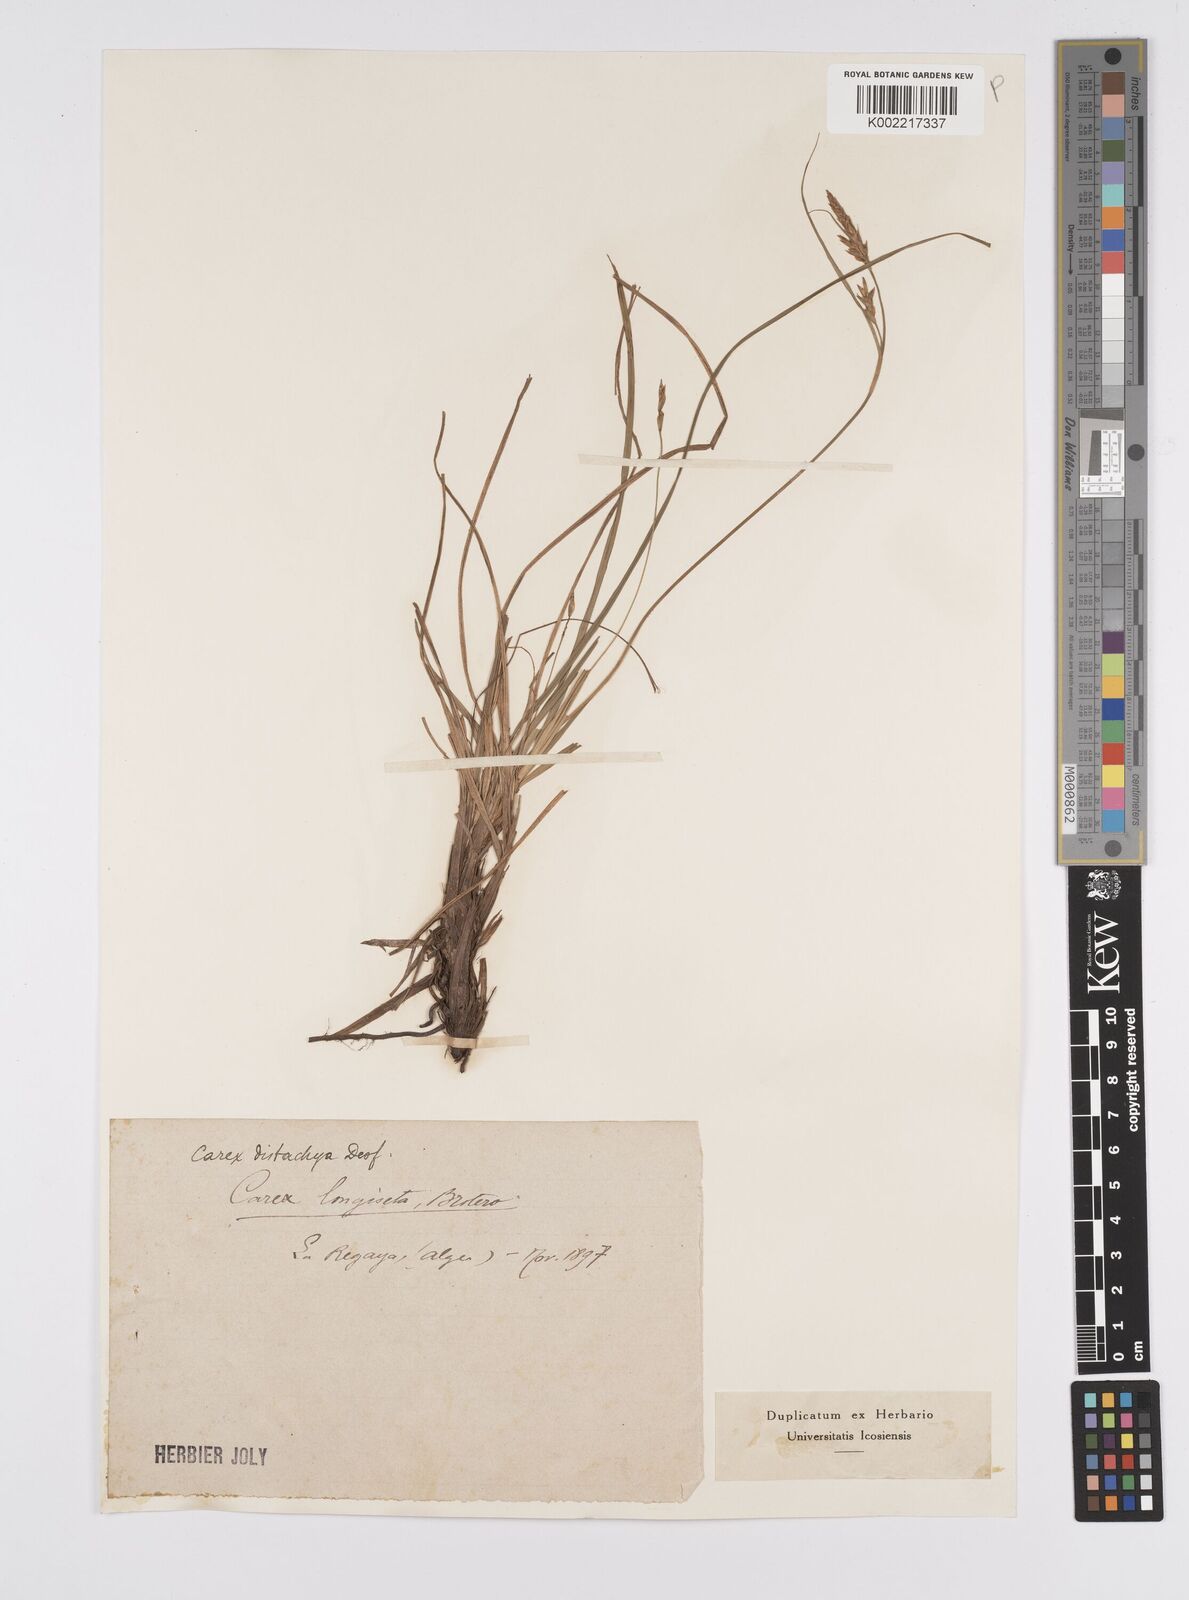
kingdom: Plantae
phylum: Tracheophyta
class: Liliopsida
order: Poales
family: Cyperaceae
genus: Carex
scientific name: Carex distachya
